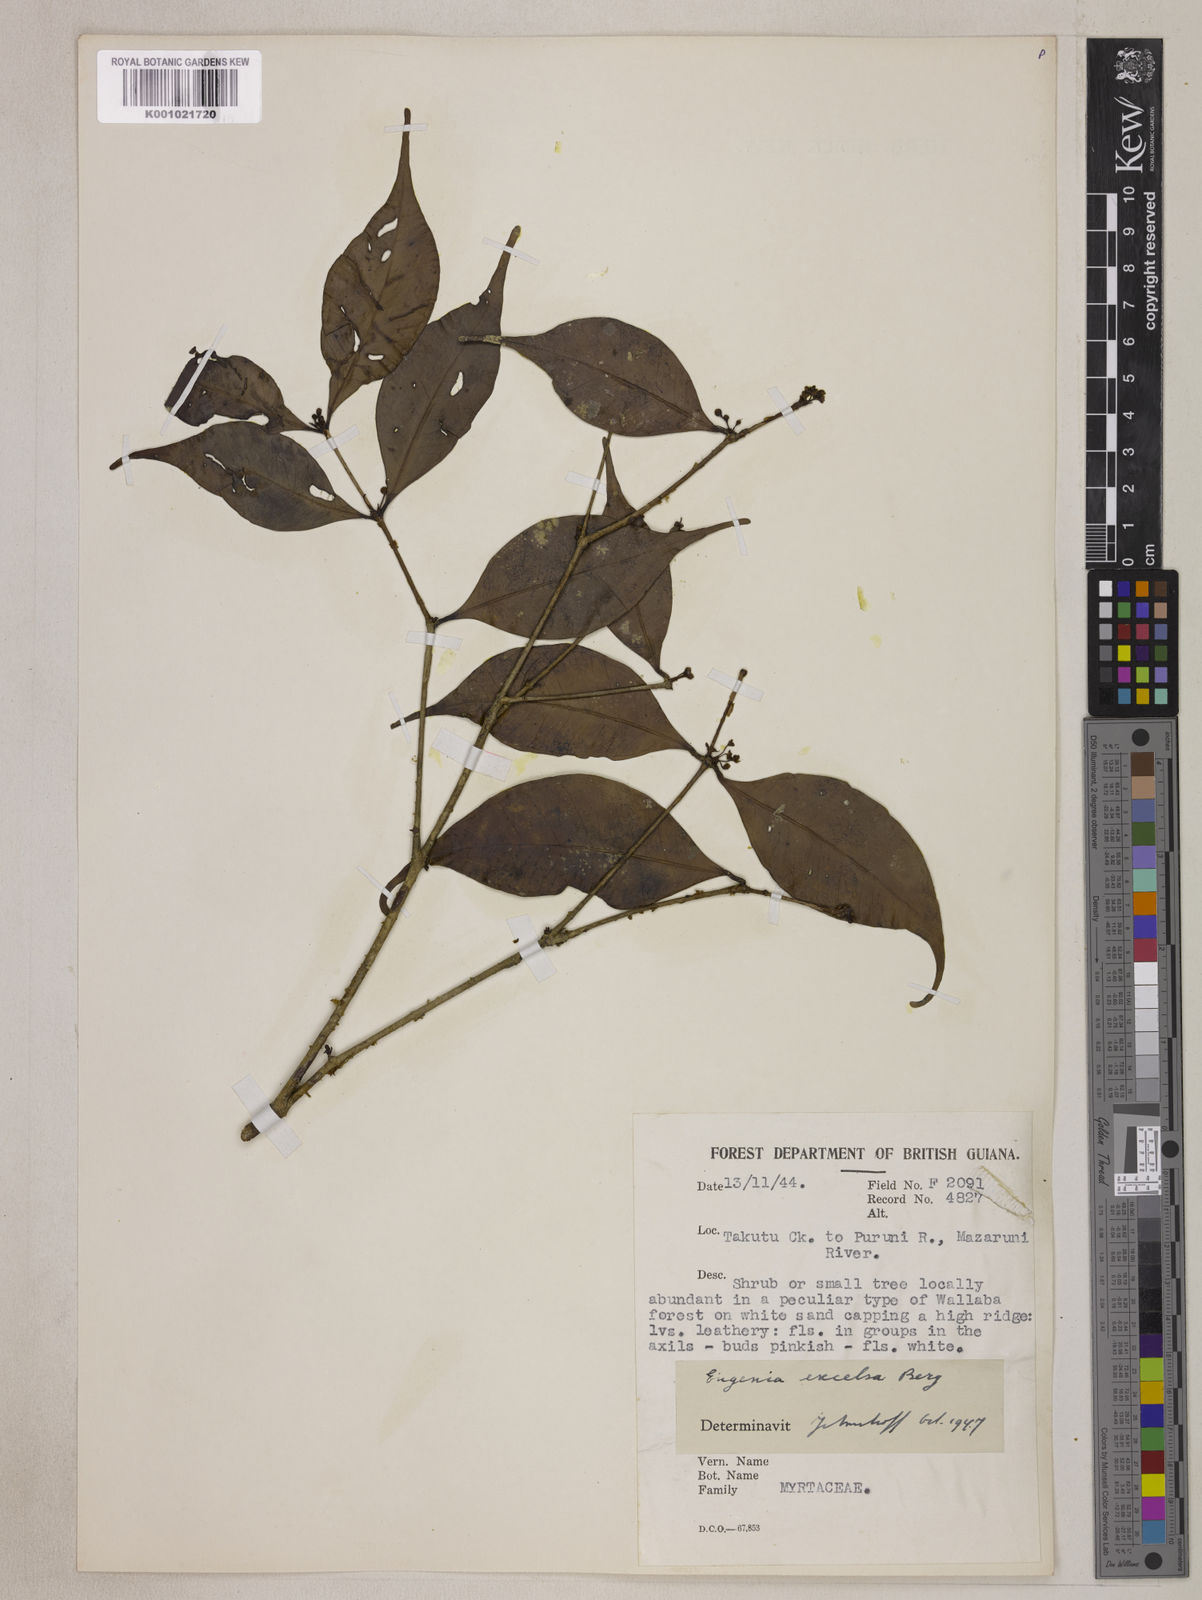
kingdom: Plantae
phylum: Tracheophyta
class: Magnoliopsida
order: Myrtales
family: Myrtaceae
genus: Eugenia
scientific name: Eugenia excelsa
